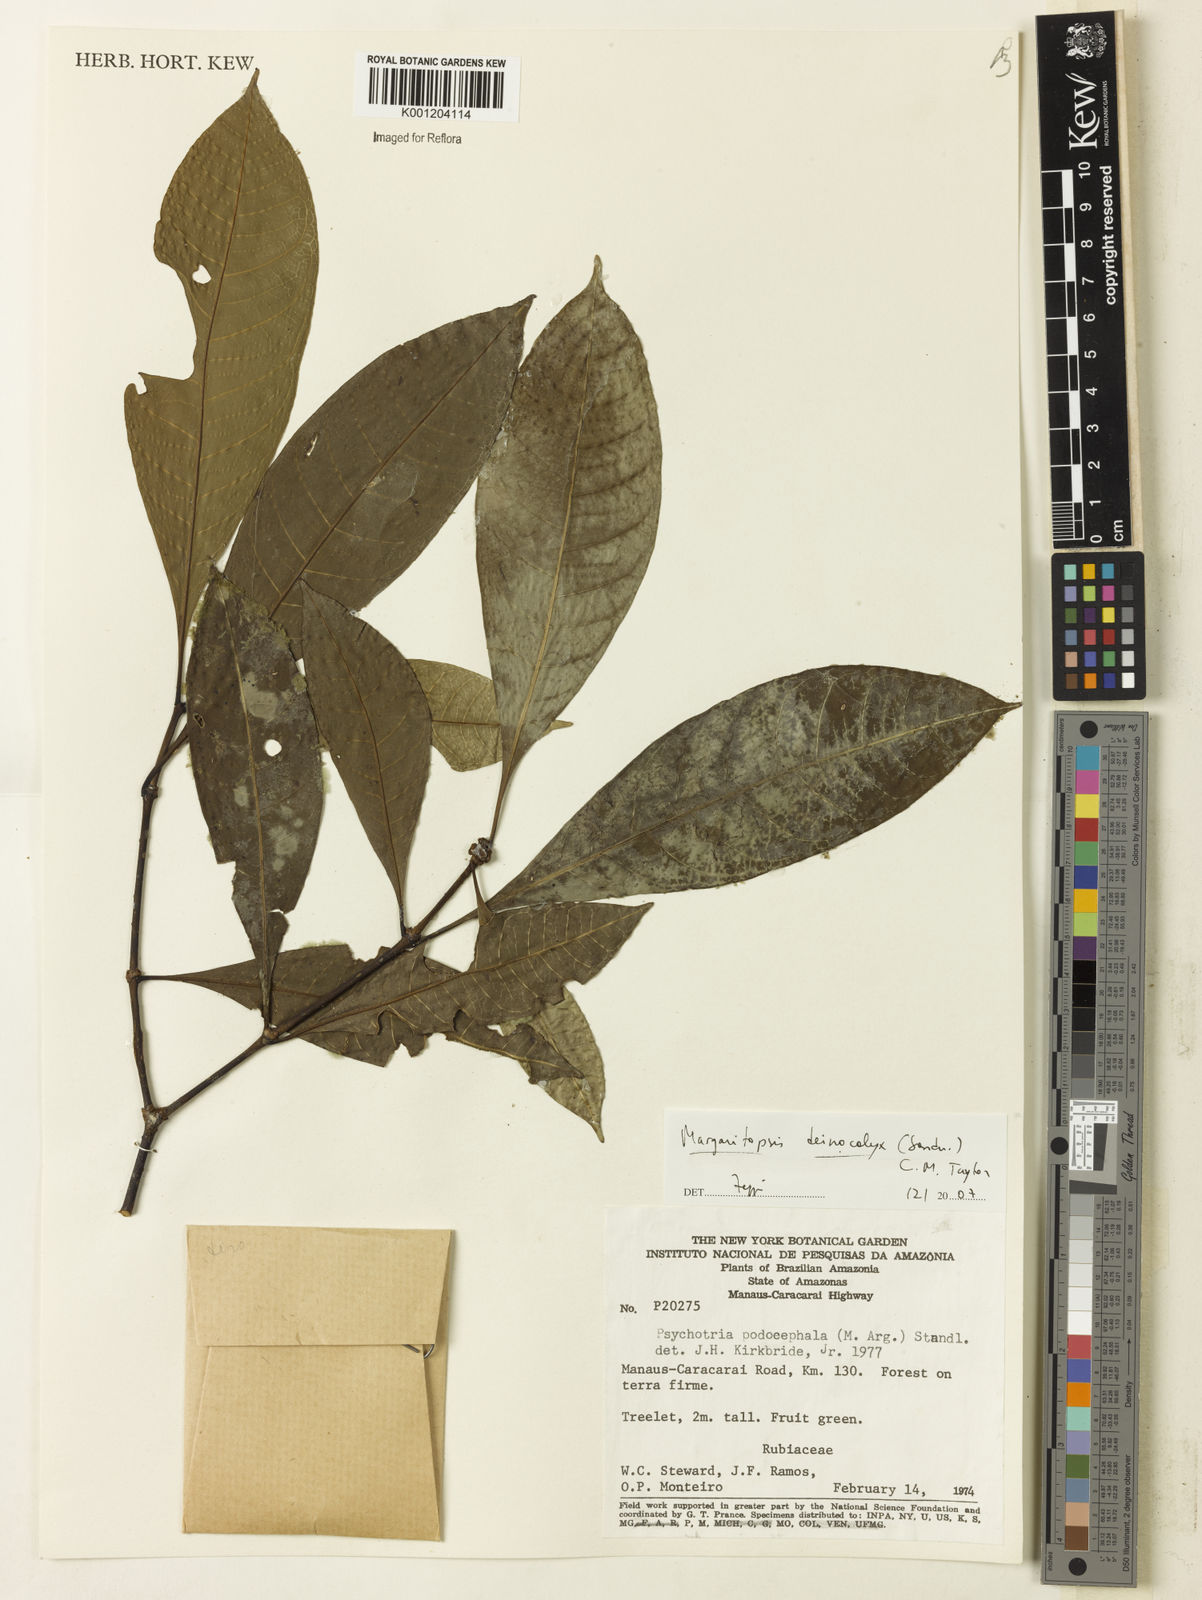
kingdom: Plantae
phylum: Tracheophyta
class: Magnoliopsida
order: Gentianales
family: Rubiaceae
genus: Eumachia
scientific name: Eumachia deinocalyx
